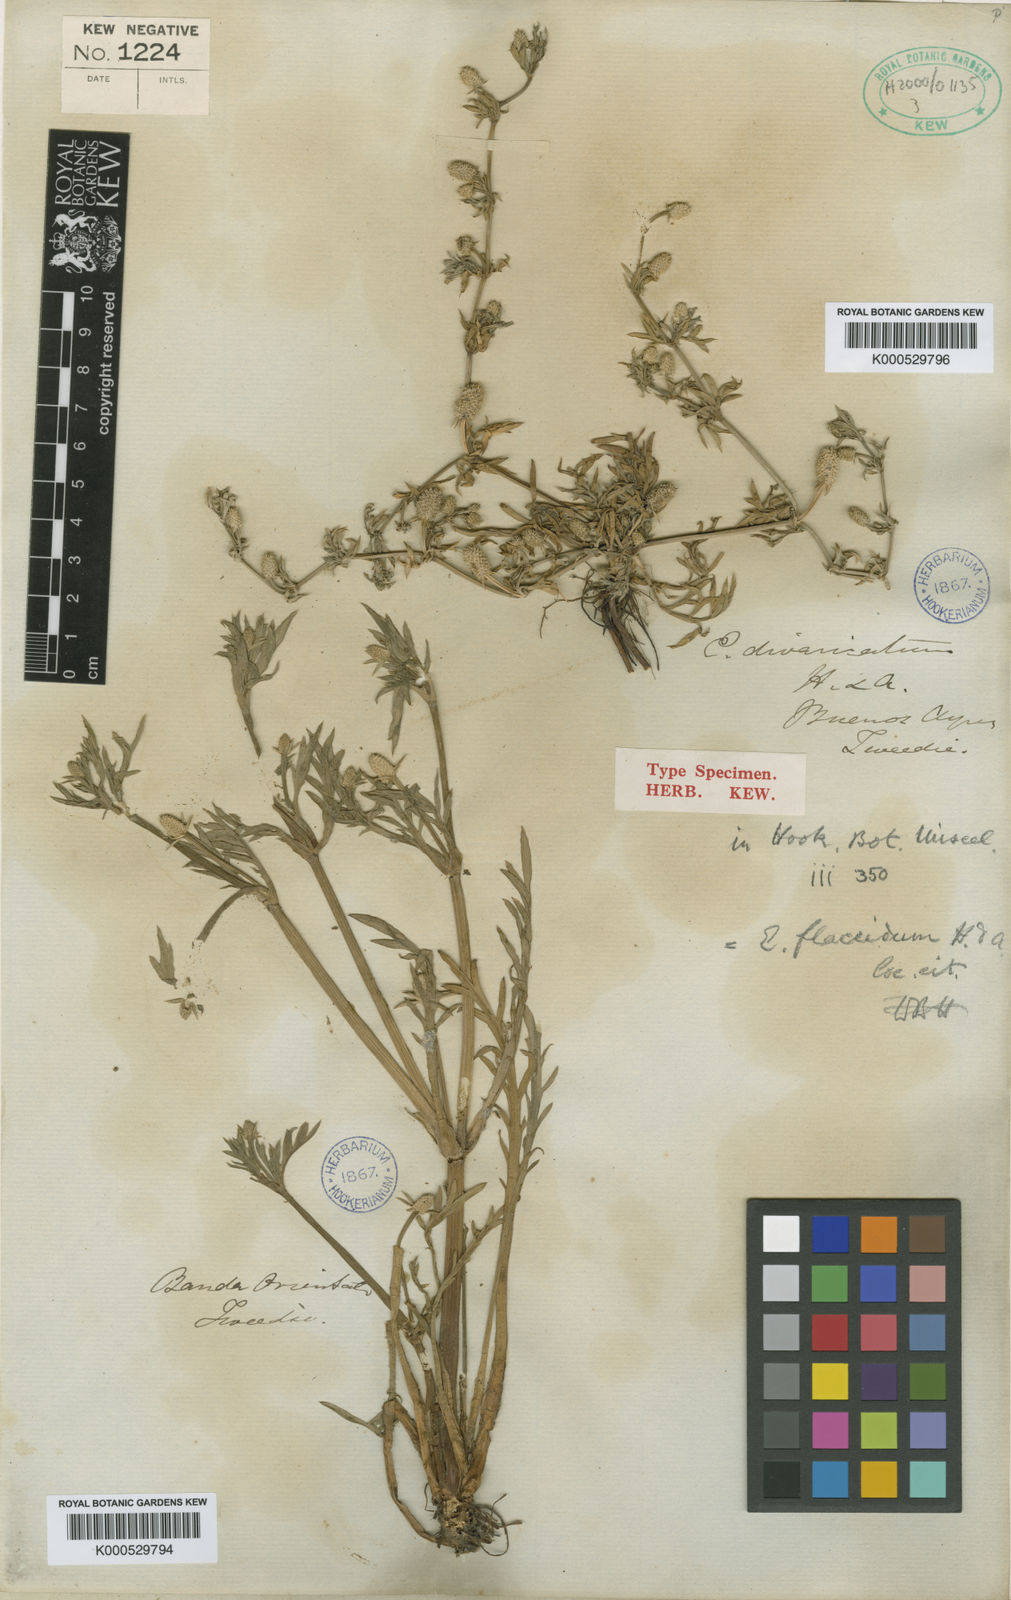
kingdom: Plantae
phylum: Tracheophyta
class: Magnoliopsida
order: Apiales
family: Apiaceae
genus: Eryngium
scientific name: Eryngium divaricatum
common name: Ballast eryngo
